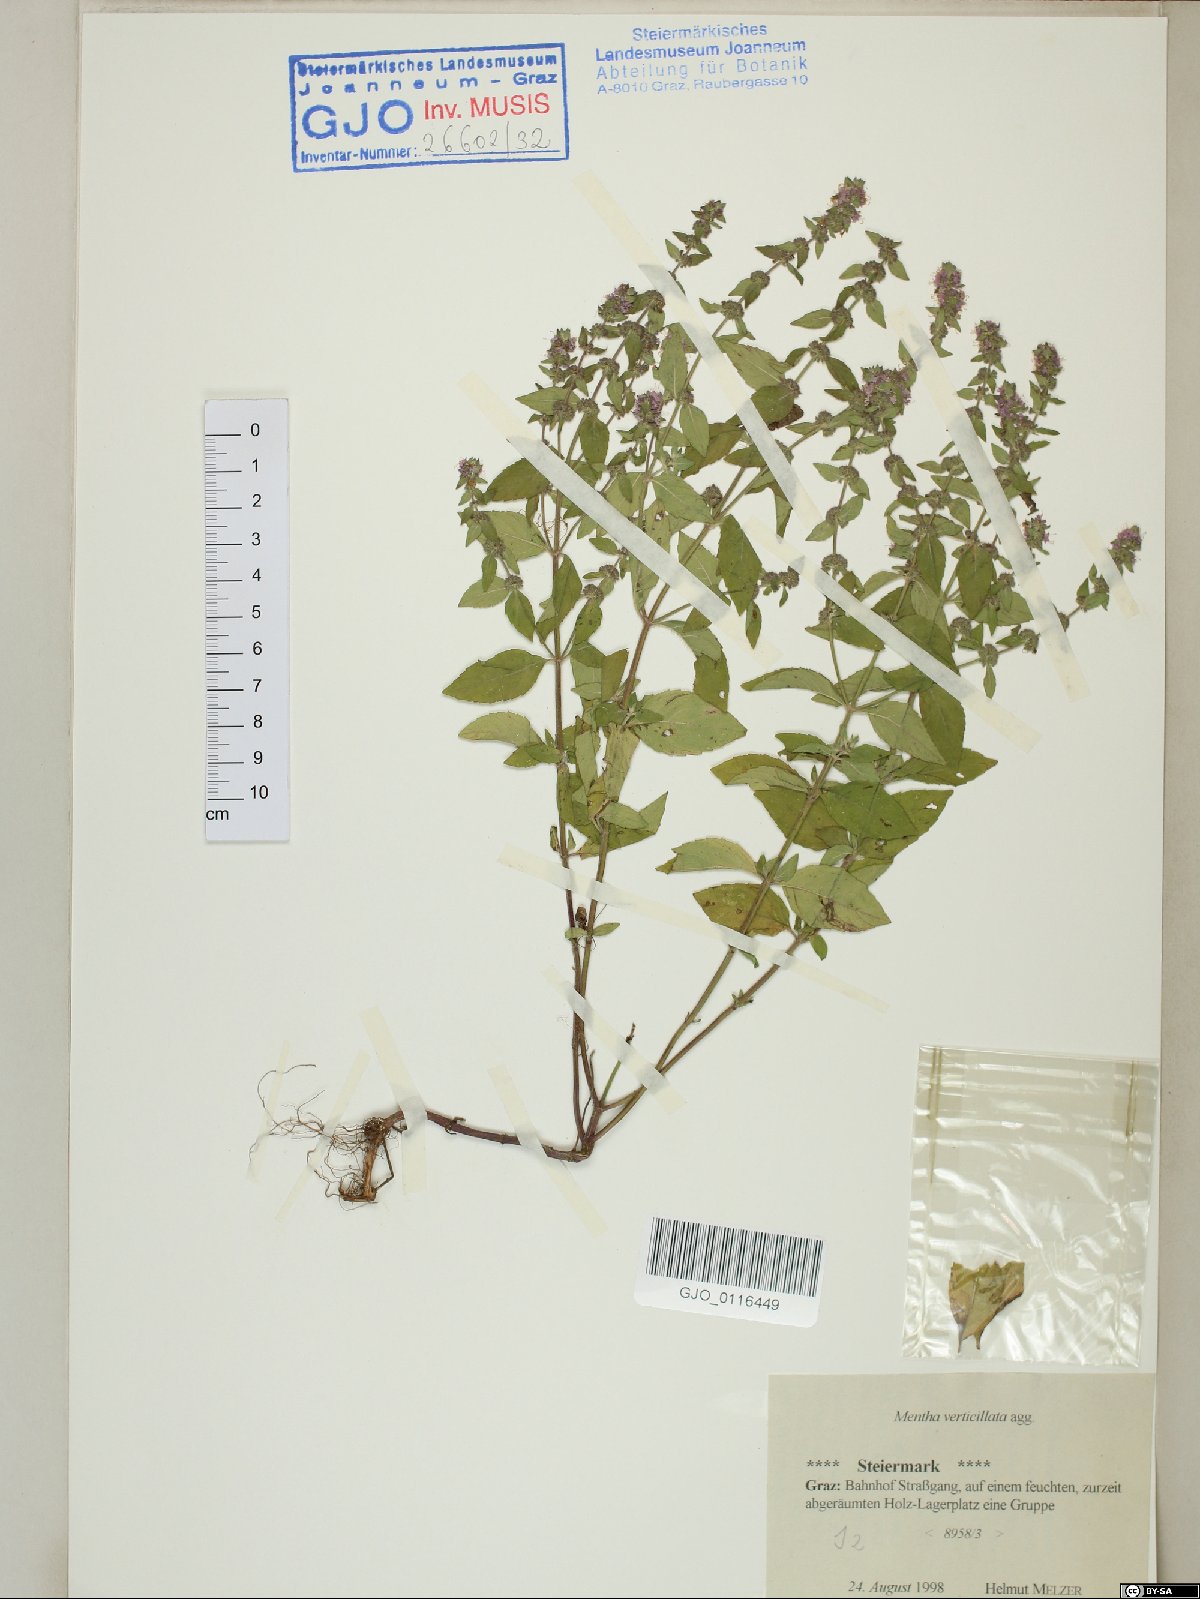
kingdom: Plantae
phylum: Tracheophyta
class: Magnoliopsida
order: Lamiales
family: Lamiaceae
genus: Mentha
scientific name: Mentha verticillata
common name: Mint
